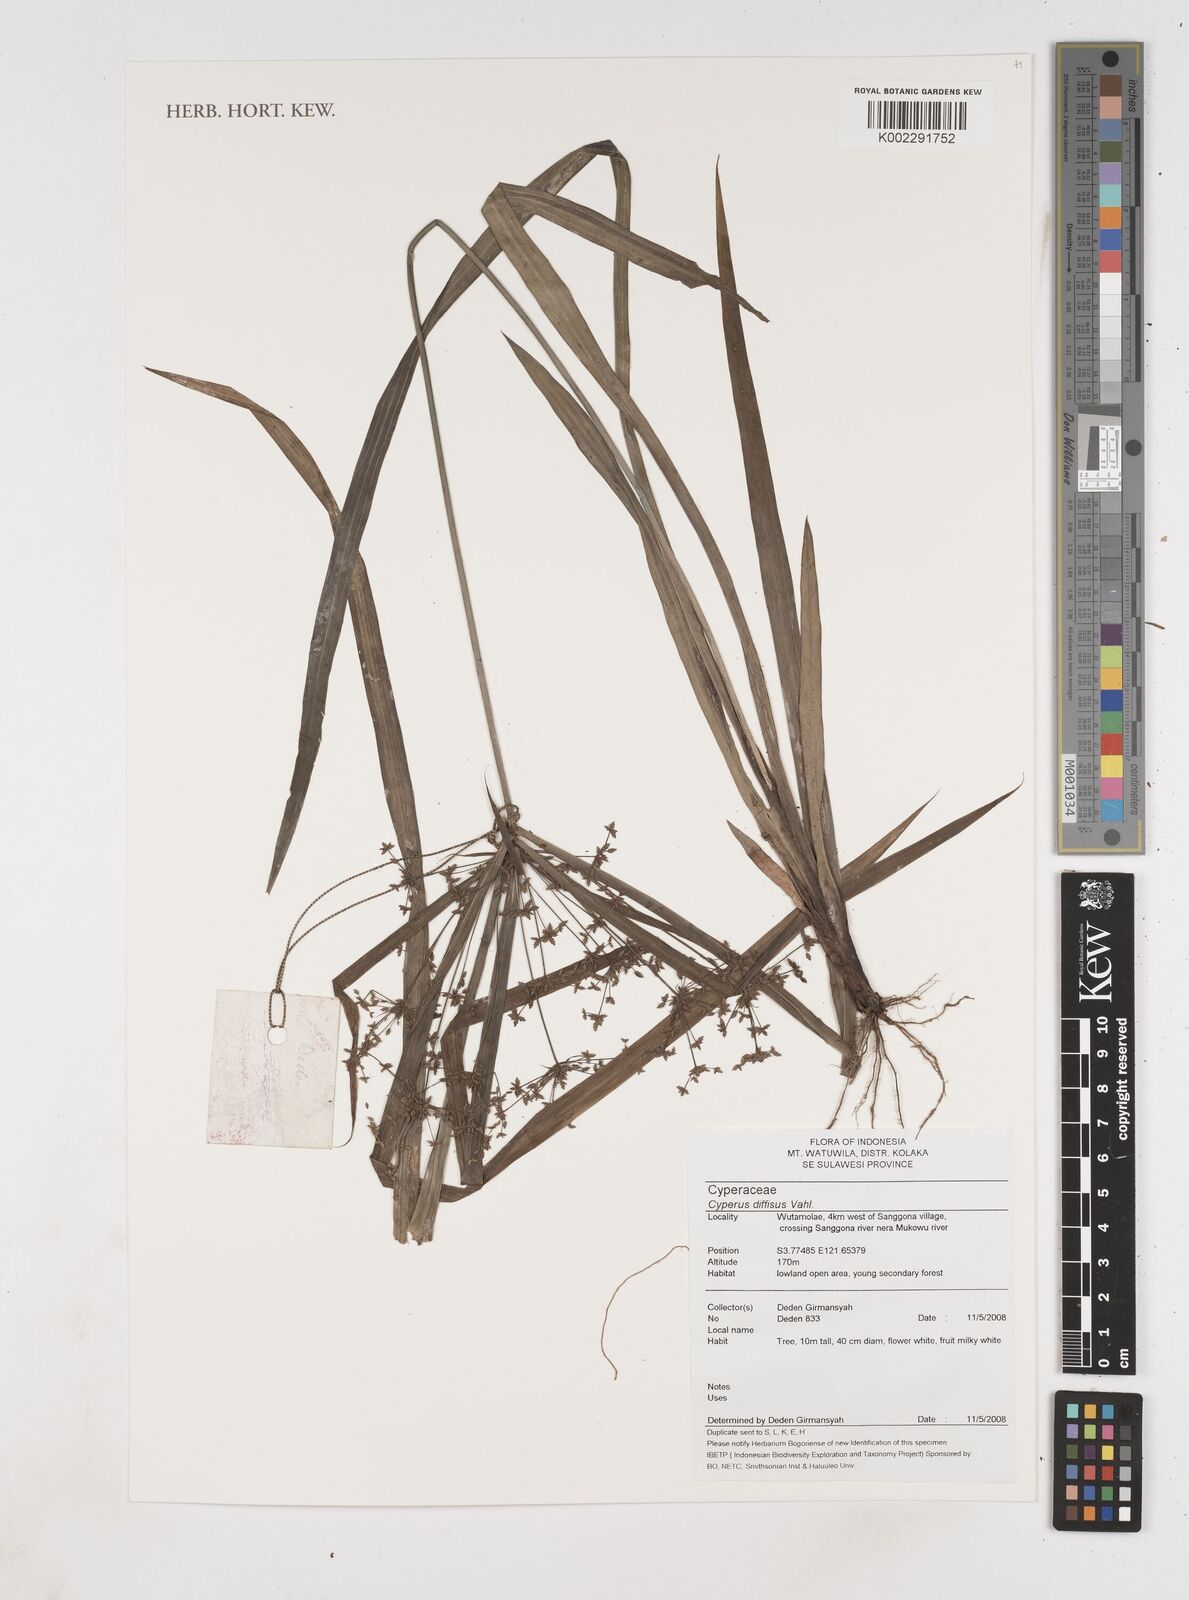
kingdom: Plantae
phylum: Tracheophyta
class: Liliopsida
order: Poales
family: Cyperaceae
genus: Cyperus
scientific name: Cyperus diffusus
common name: Dwarf umbrella grass
